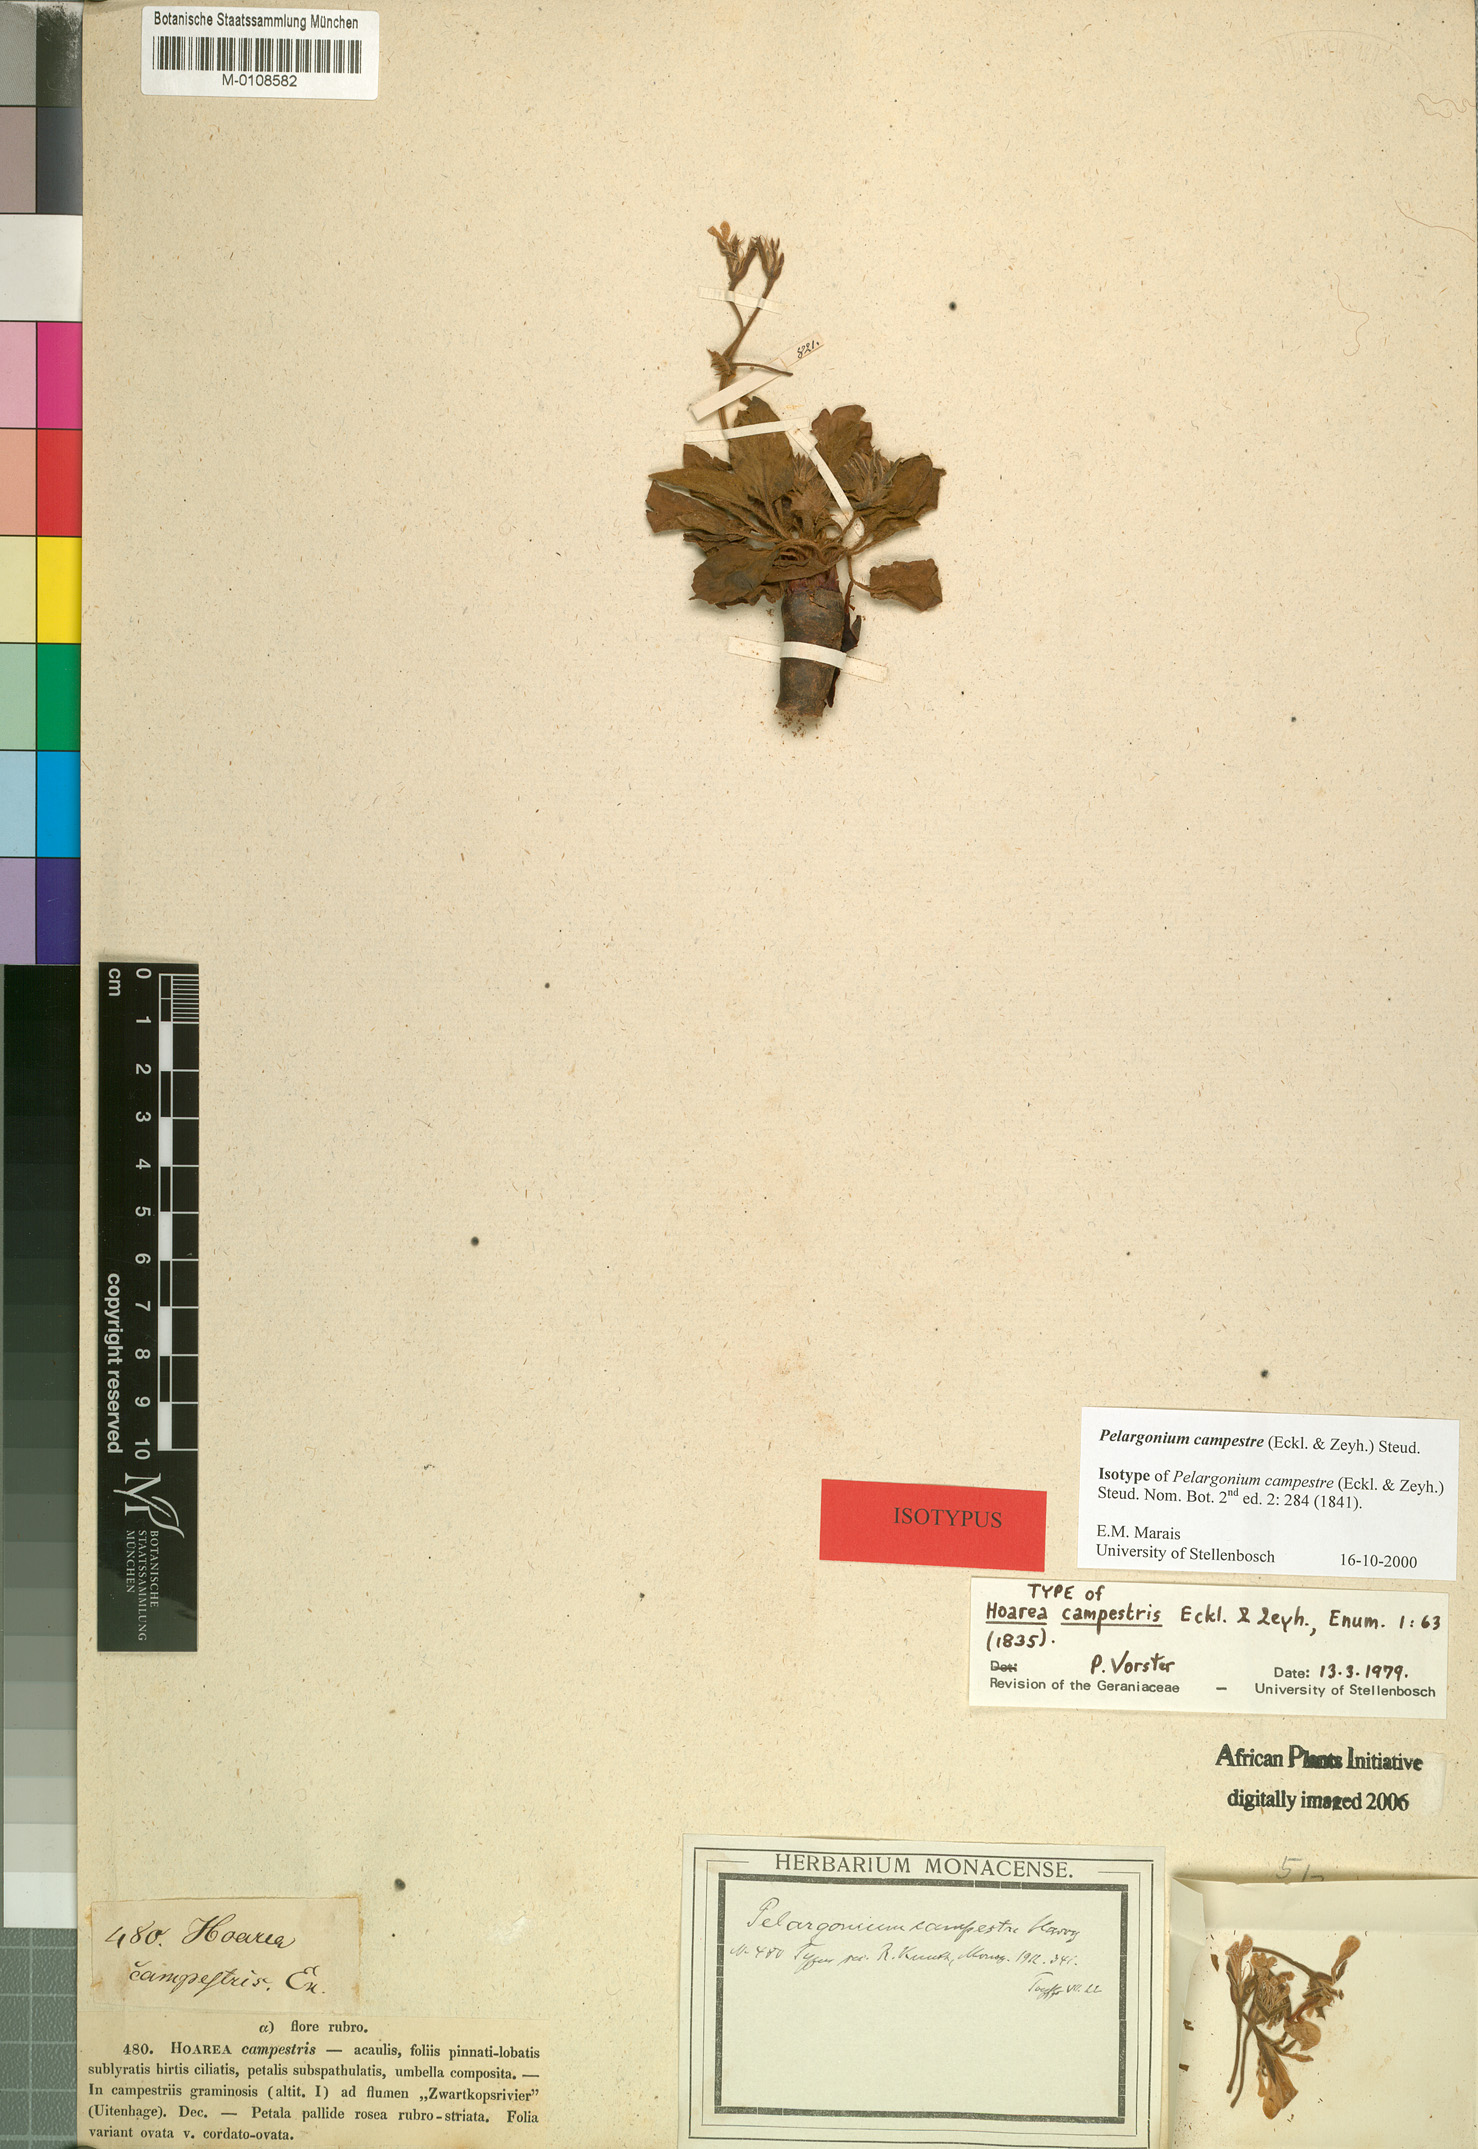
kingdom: Plantae
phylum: Tracheophyta
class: Magnoliopsida
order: Geraniales
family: Geraniaceae
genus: Pelargonium
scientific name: Pelargonium campestre
